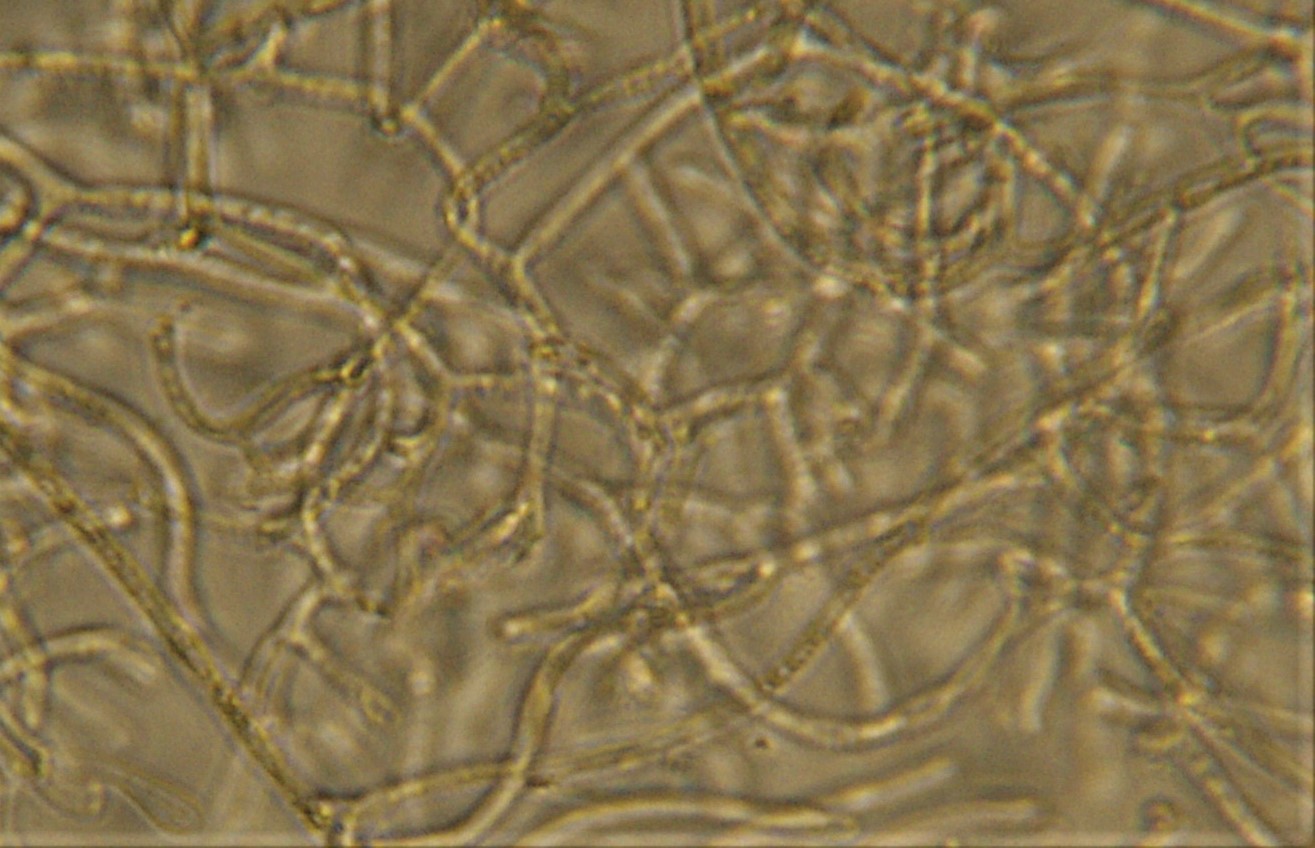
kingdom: Fungi
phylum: Basidiomycota
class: Dacrymycetes
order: Dacrymycetales
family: Dacrymycetaceae
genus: Dacrymyces
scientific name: Dacrymyces
